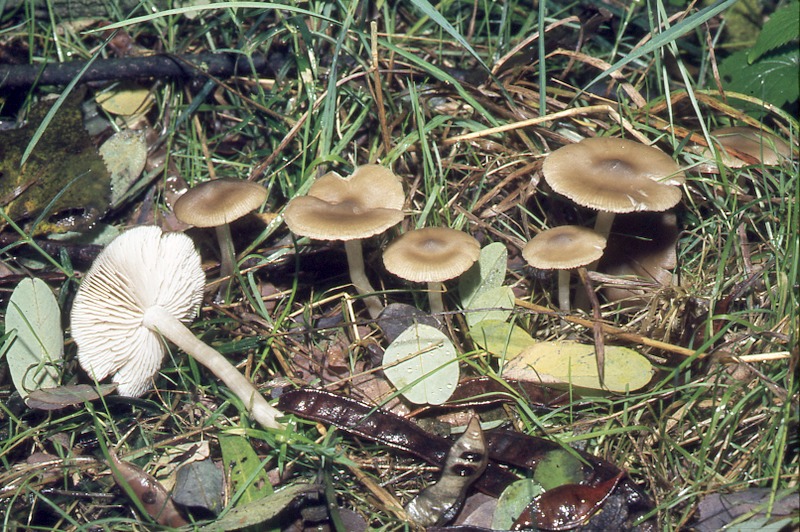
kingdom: Fungi
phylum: Basidiomycota
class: Agaricomycetes
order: Agaricales
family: Entolomataceae
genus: Entocybe
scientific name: Entocybe pseudoturbida
